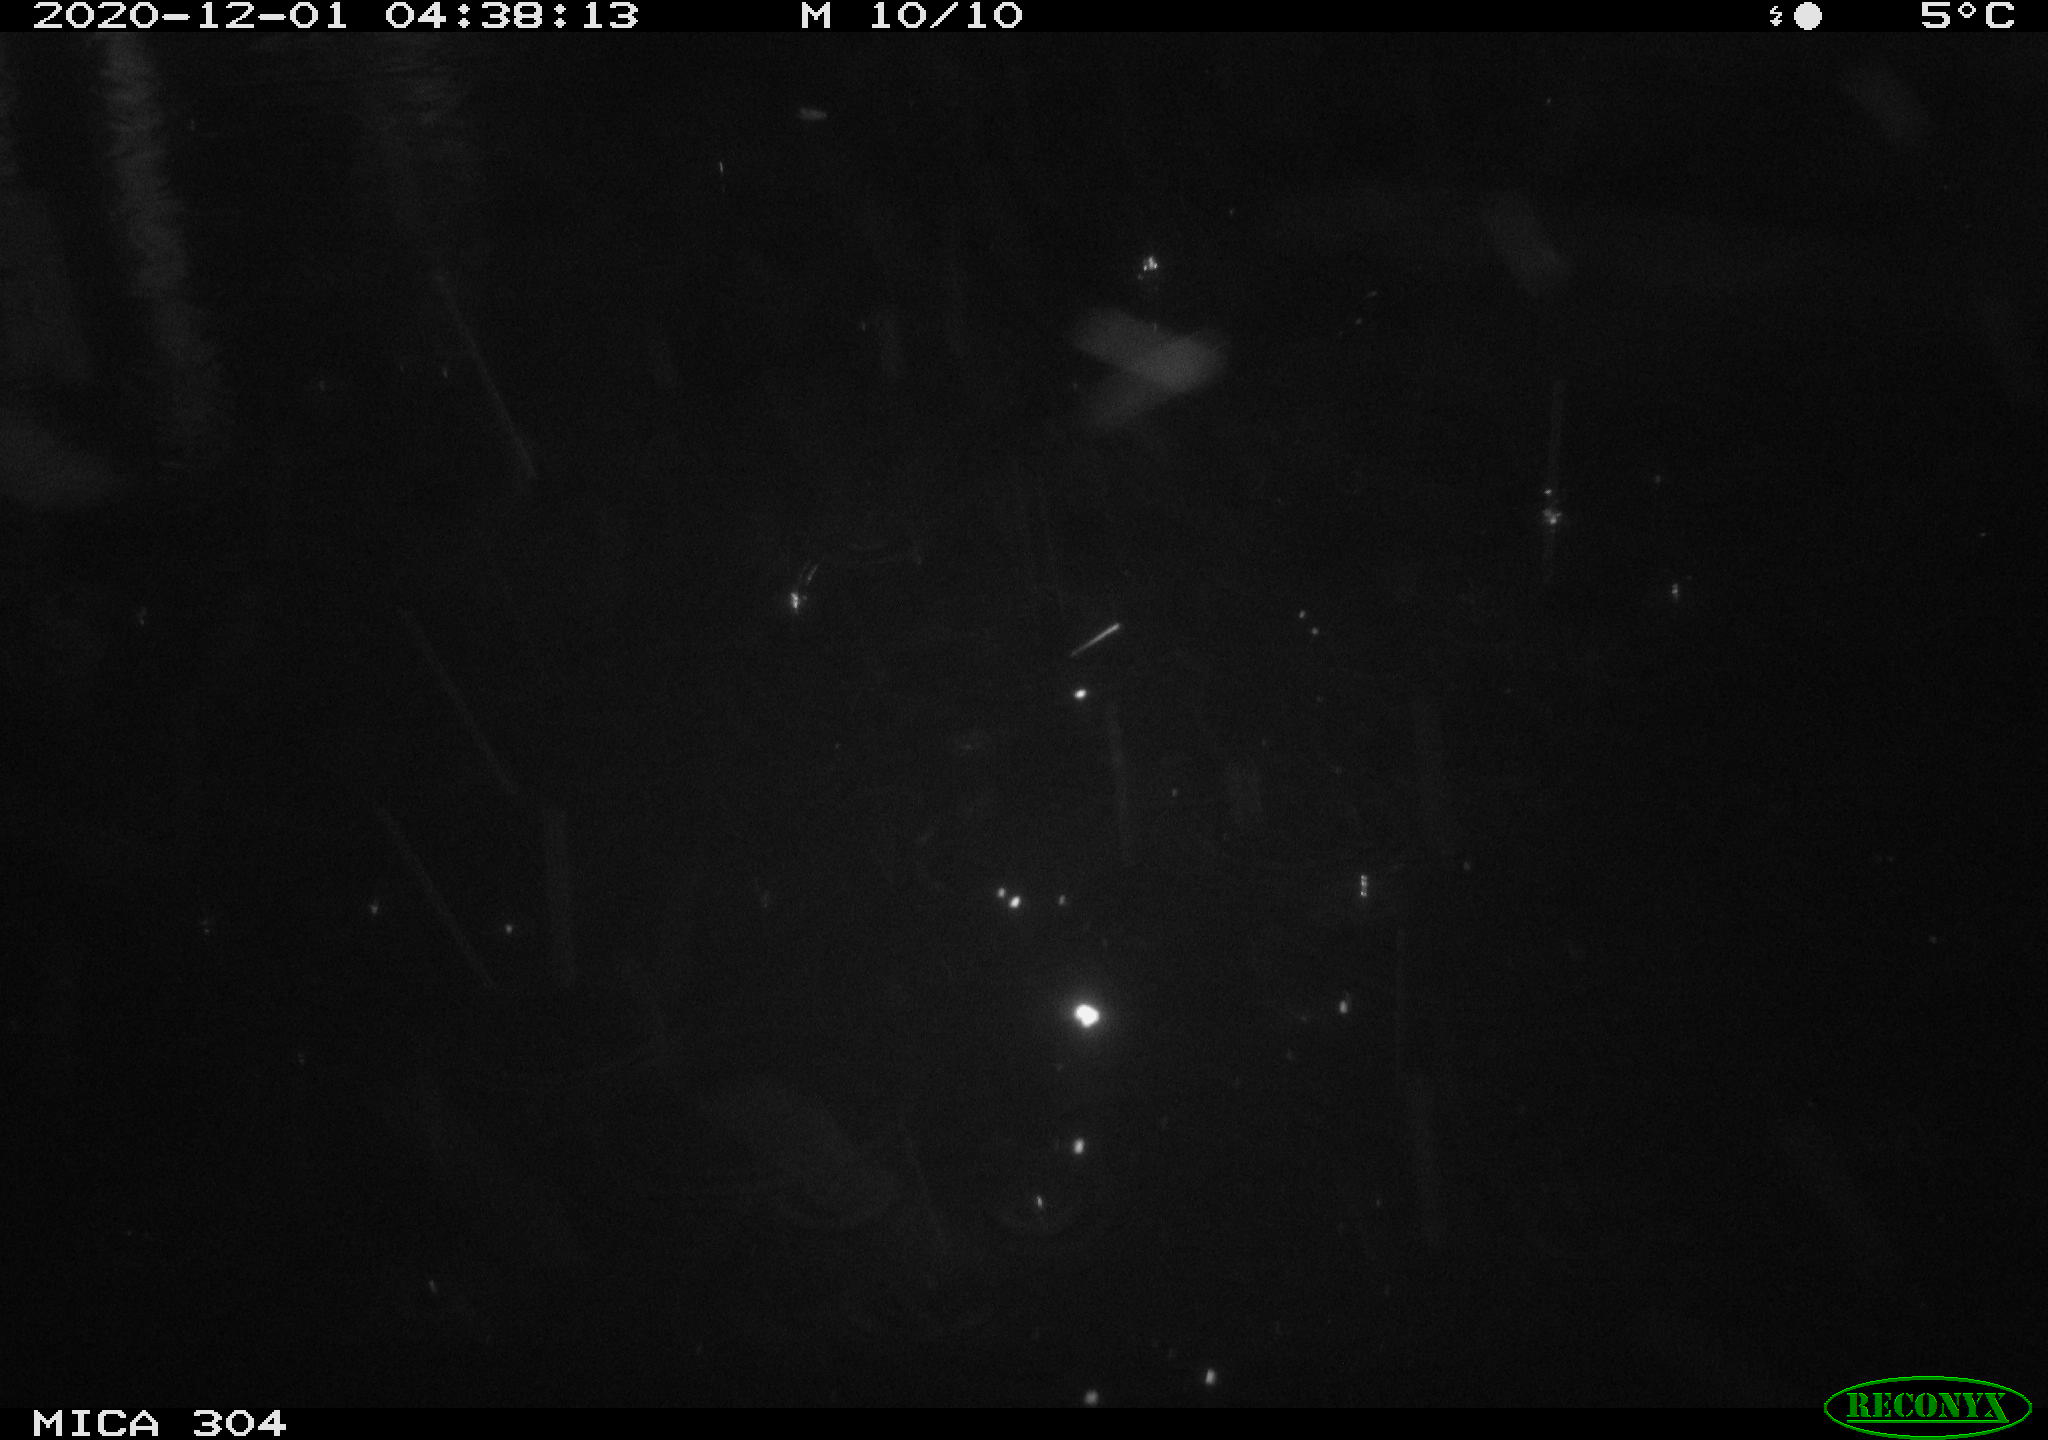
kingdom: Animalia
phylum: Chordata
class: Mammalia
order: Rodentia
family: Muridae
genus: Rattus
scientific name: Rattus norvegicus
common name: Brown rat
